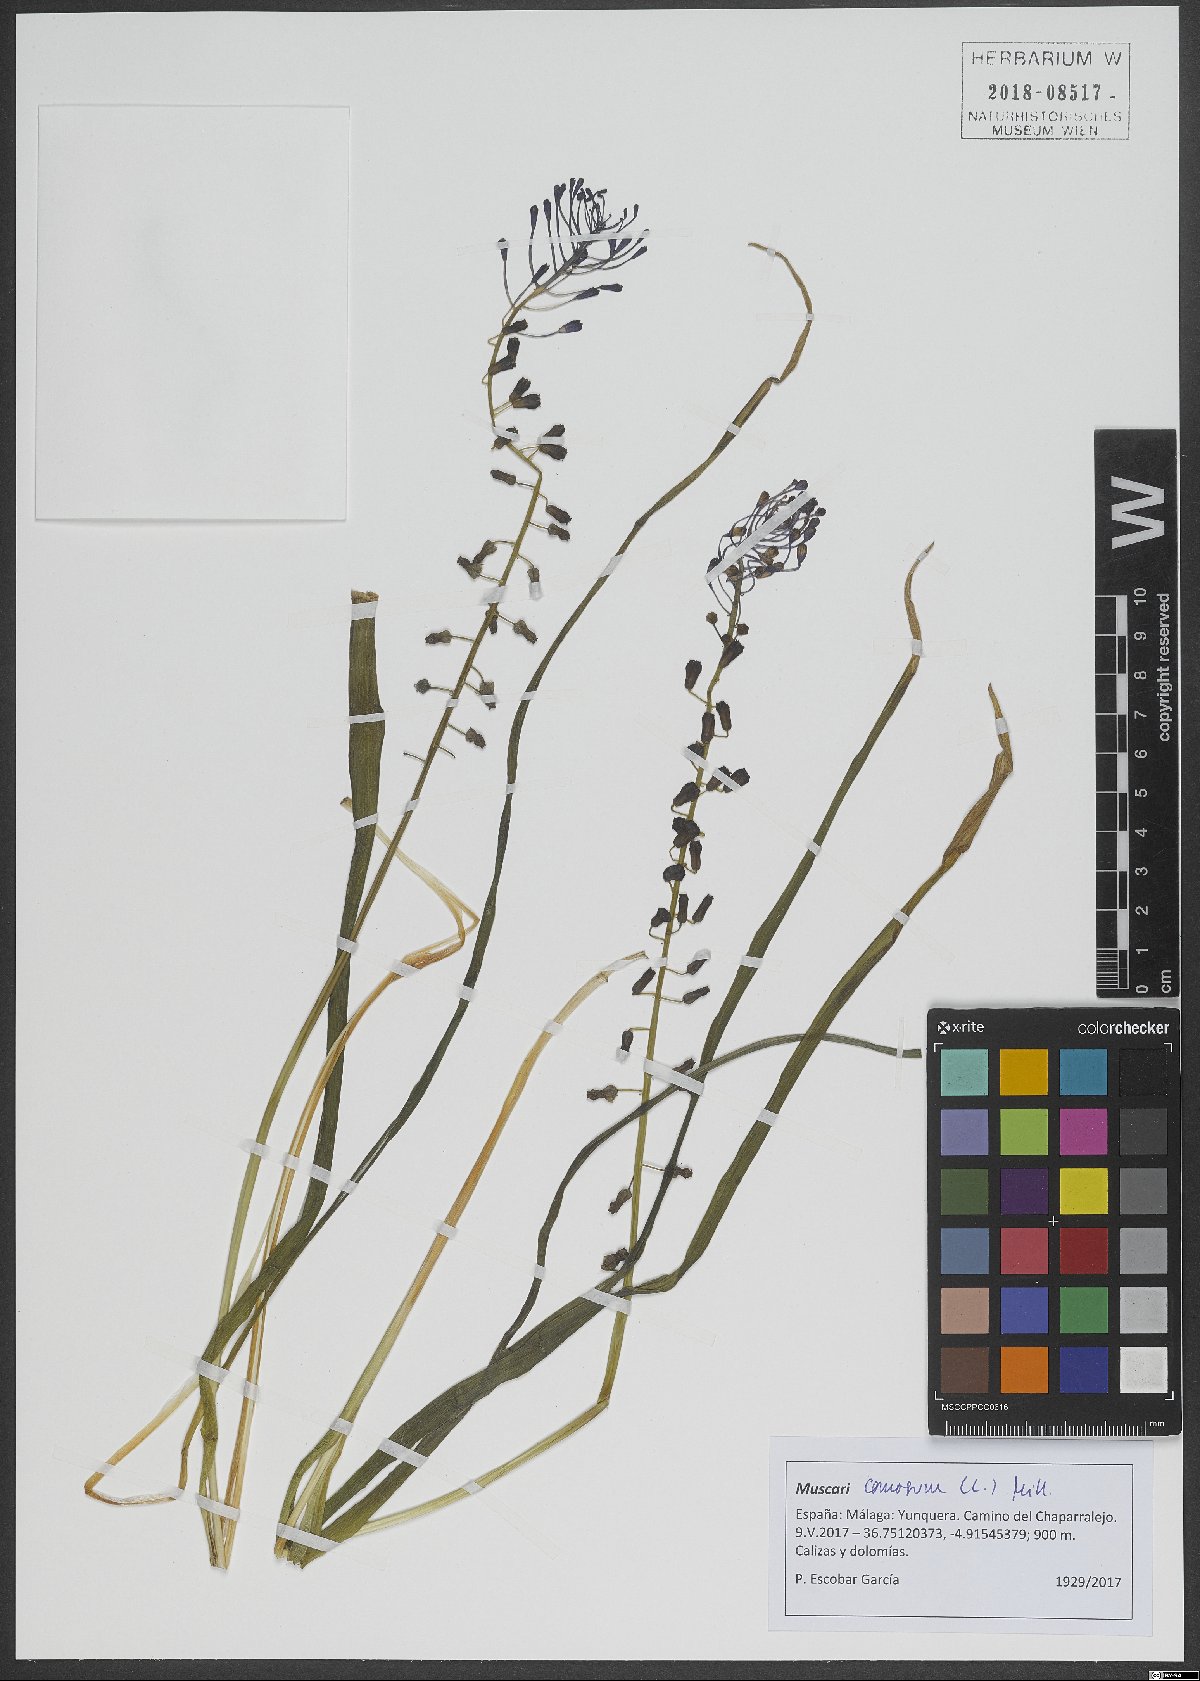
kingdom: Plantae
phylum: Tracheophyta
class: Liliopsida
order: Asparagales
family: Asparagaceae
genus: Muscari
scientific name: Muscari comosum
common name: Tassel hyacinth
